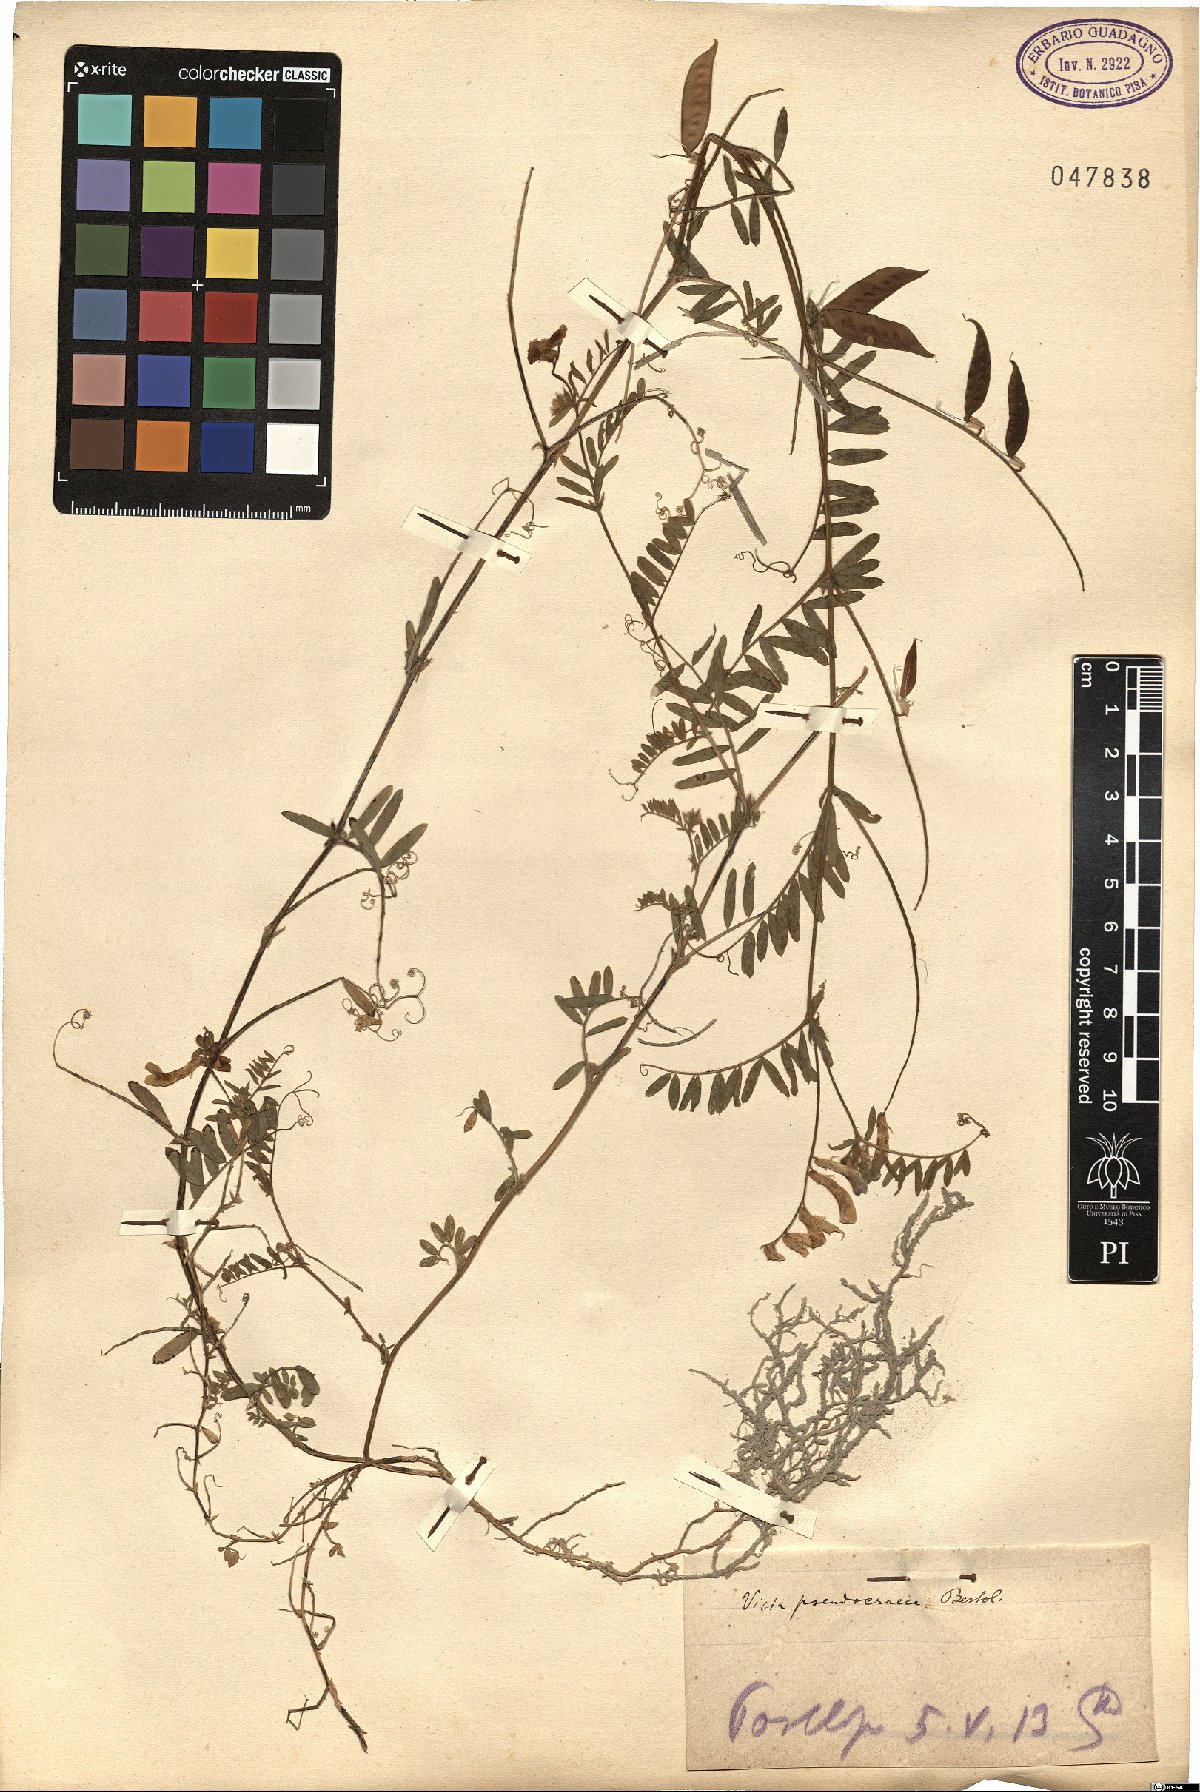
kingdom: Plantae
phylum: Tracheophyta
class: Magnoliopsida
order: Fabales
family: Fabaceae
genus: Vicia
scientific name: Vicia villosa
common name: Fodder vetch
